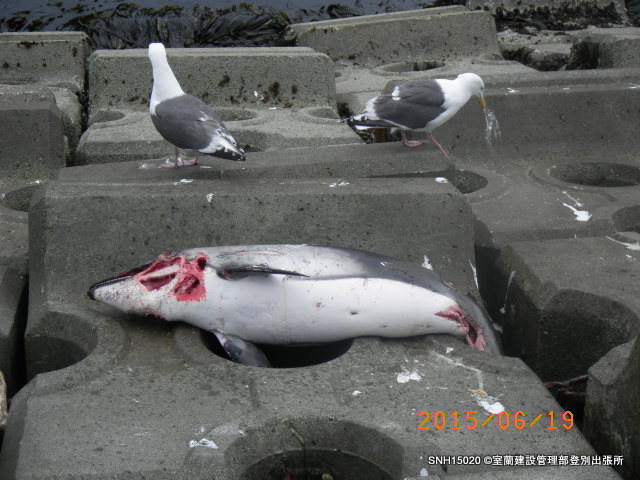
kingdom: Animalia
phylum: Chordata
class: Mammalia
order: Cetacea
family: Delphinidae
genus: Lagenorhynchus
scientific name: Lagenorhynchus obliquidens
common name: Pacific white-sided dolphin
